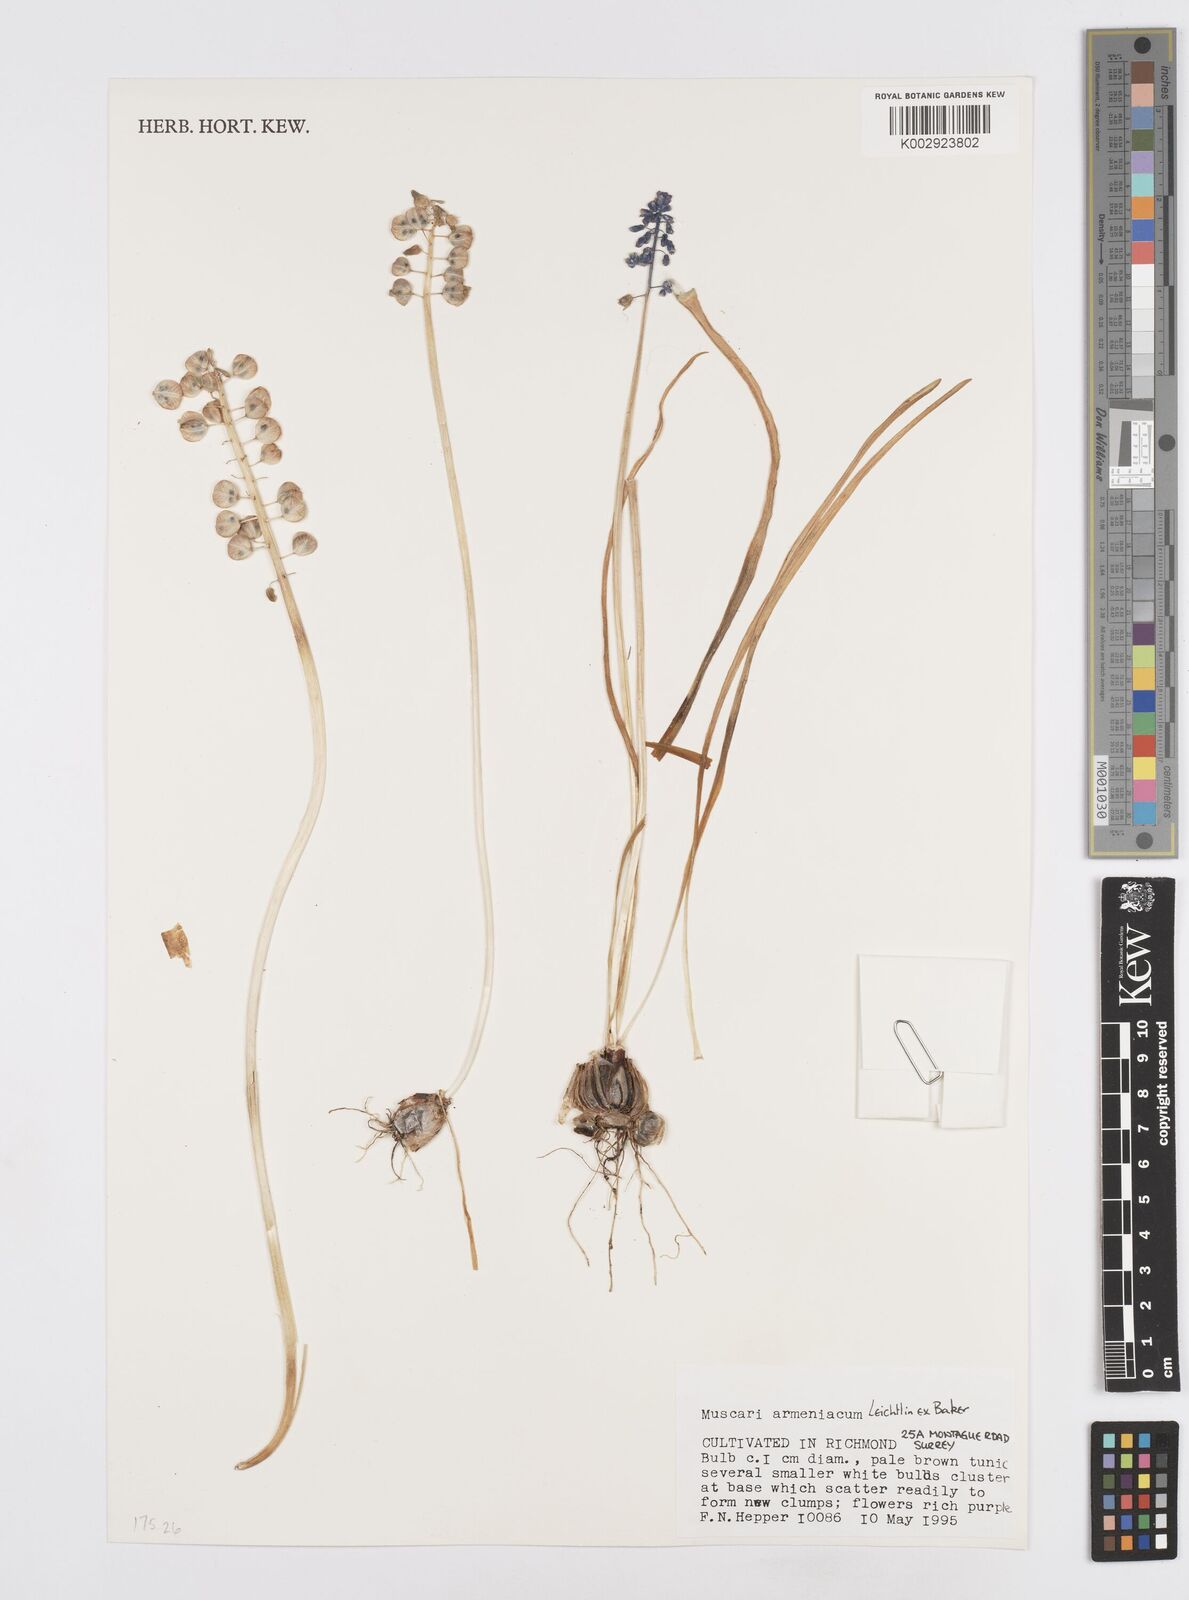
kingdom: Plantae
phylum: Tracheophyta
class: Liliopsida
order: Asparagales
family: Asparagaceae
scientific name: Asparagaceae
